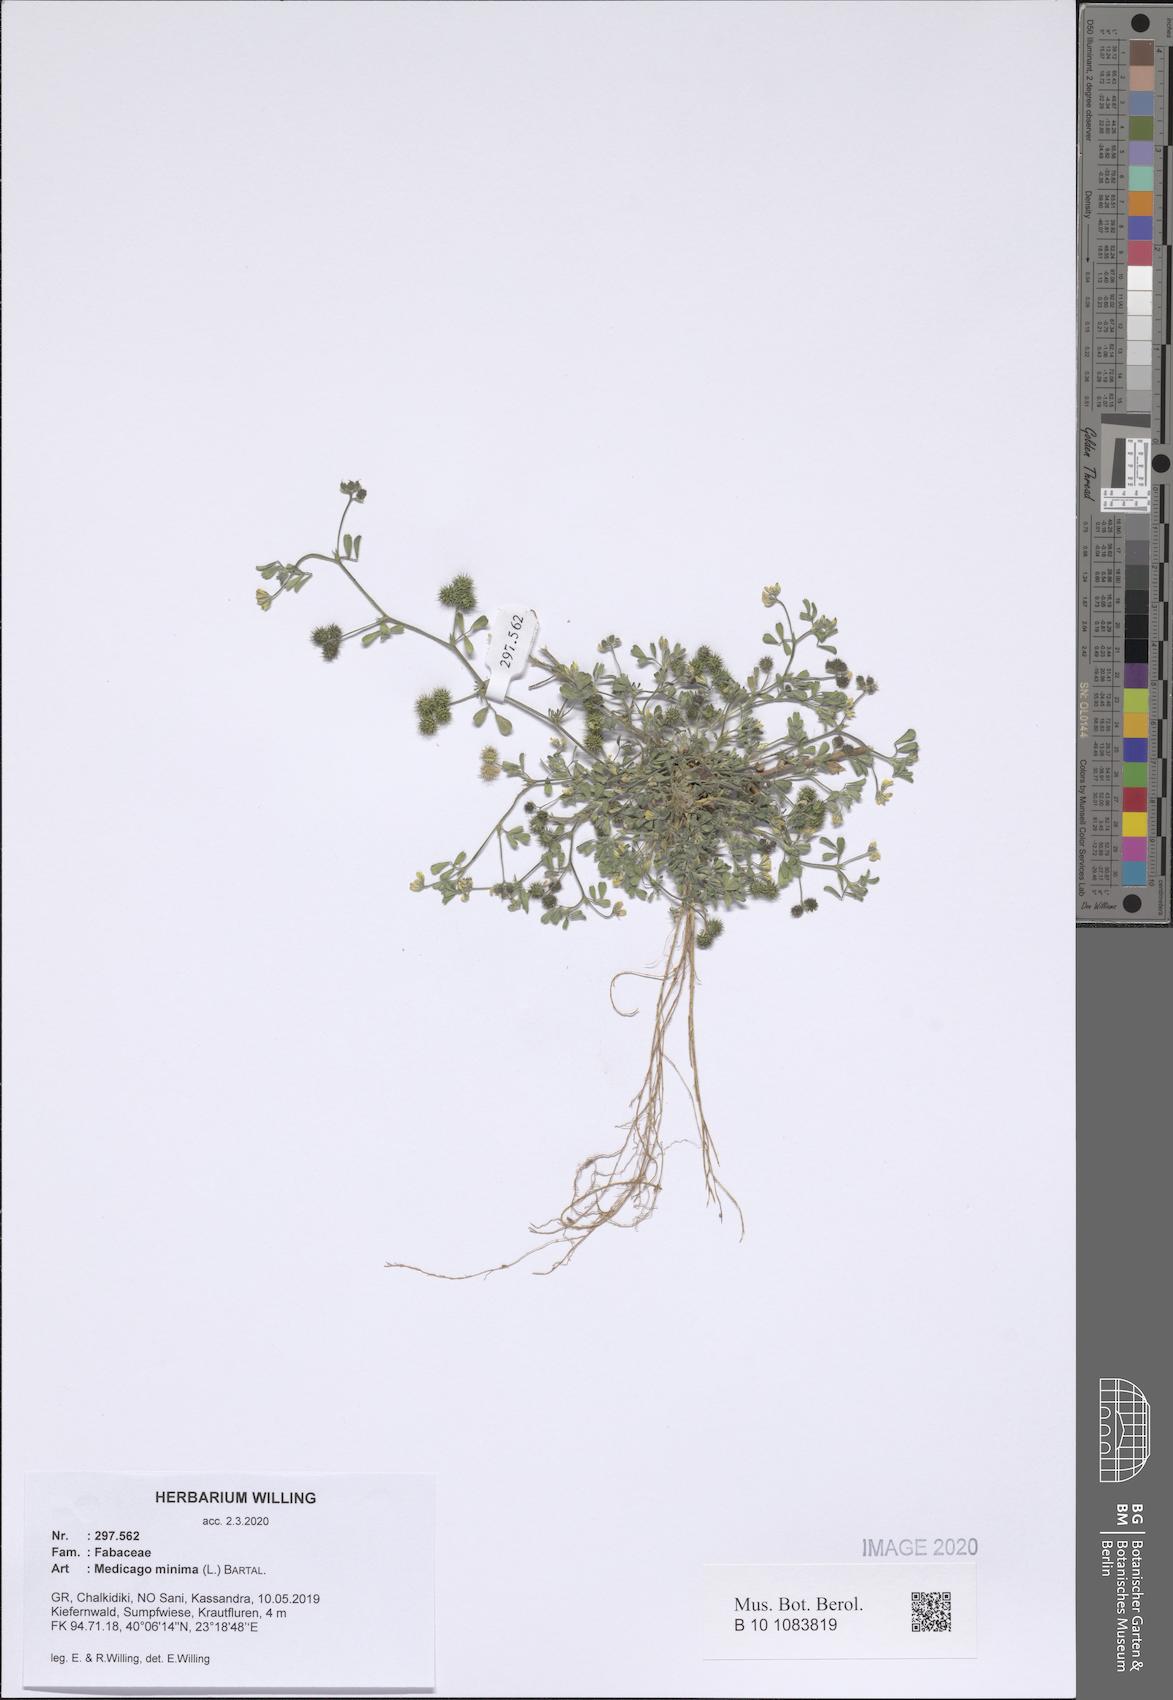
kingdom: Plantae
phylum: Tracheophyta
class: Magnoliopsida
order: Fabales
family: Fabaceae
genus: Medicago
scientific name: Medicago minima
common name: Little bur-clover
